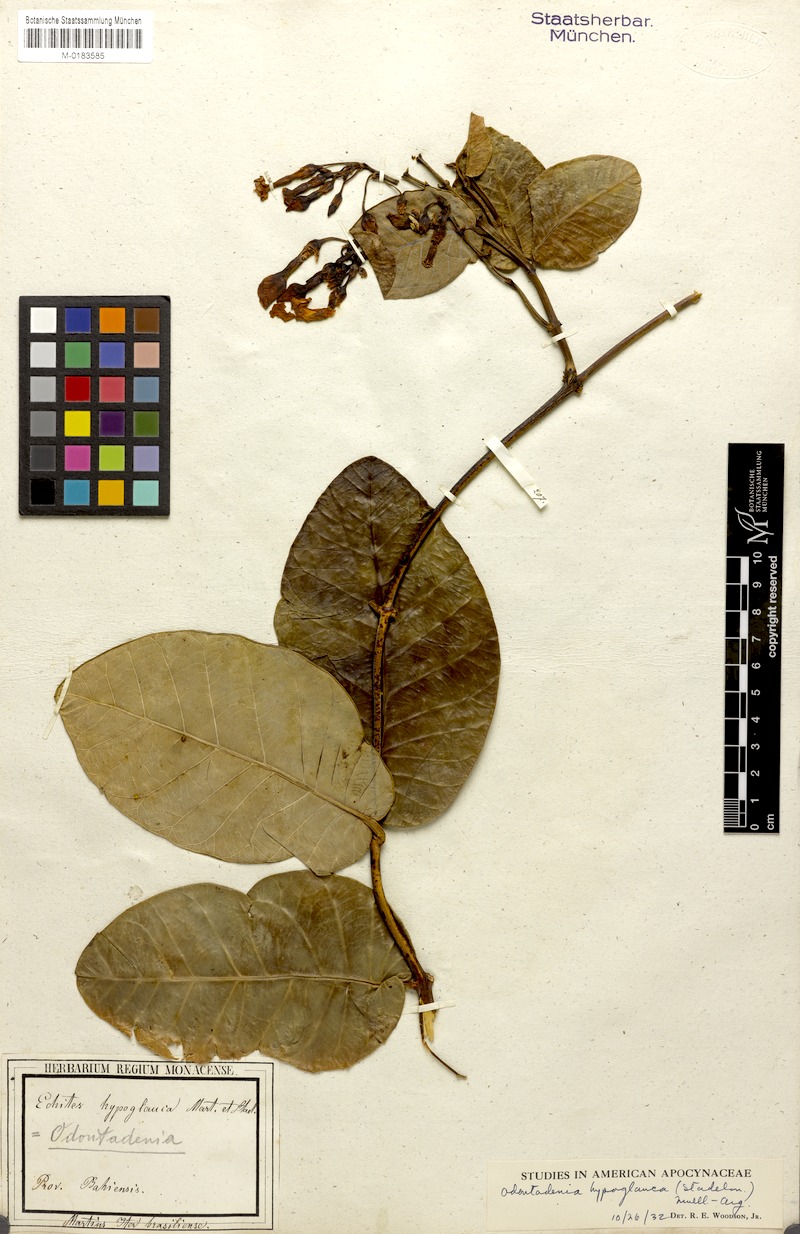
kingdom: Plantae
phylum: Tracheophyta
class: Magnoliopsida
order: Gentianales
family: Apocynaceae
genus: Odontadenia
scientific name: Odontadenia hypoglauca
